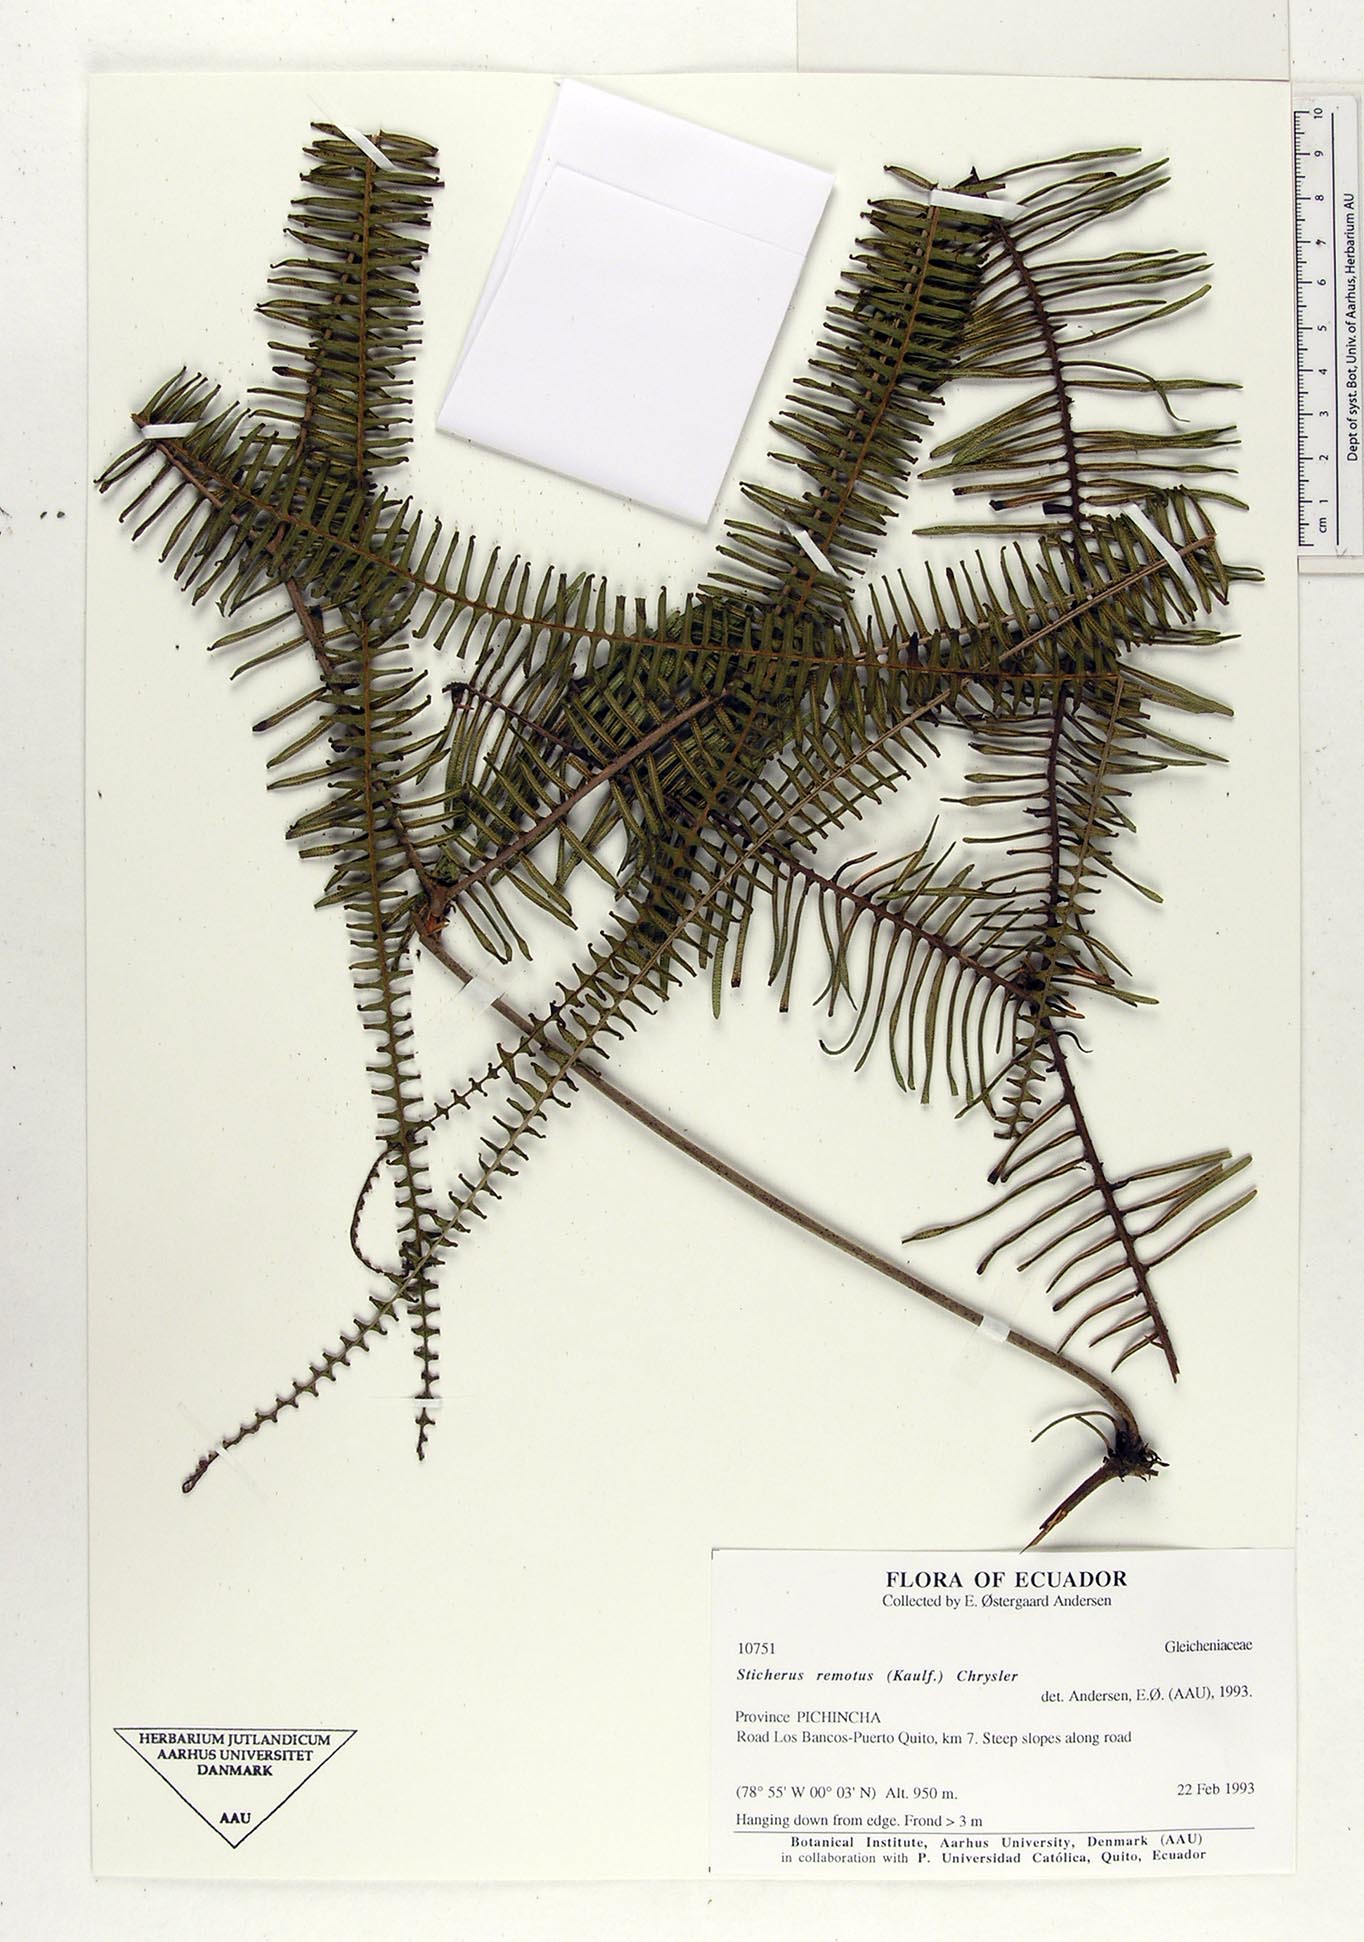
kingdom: Plantae
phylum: Tracheophyta
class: Polypodiopsida
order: Gleicheniales
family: Gleicheniaceae
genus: Sticherus
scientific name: Sticherus remotus
